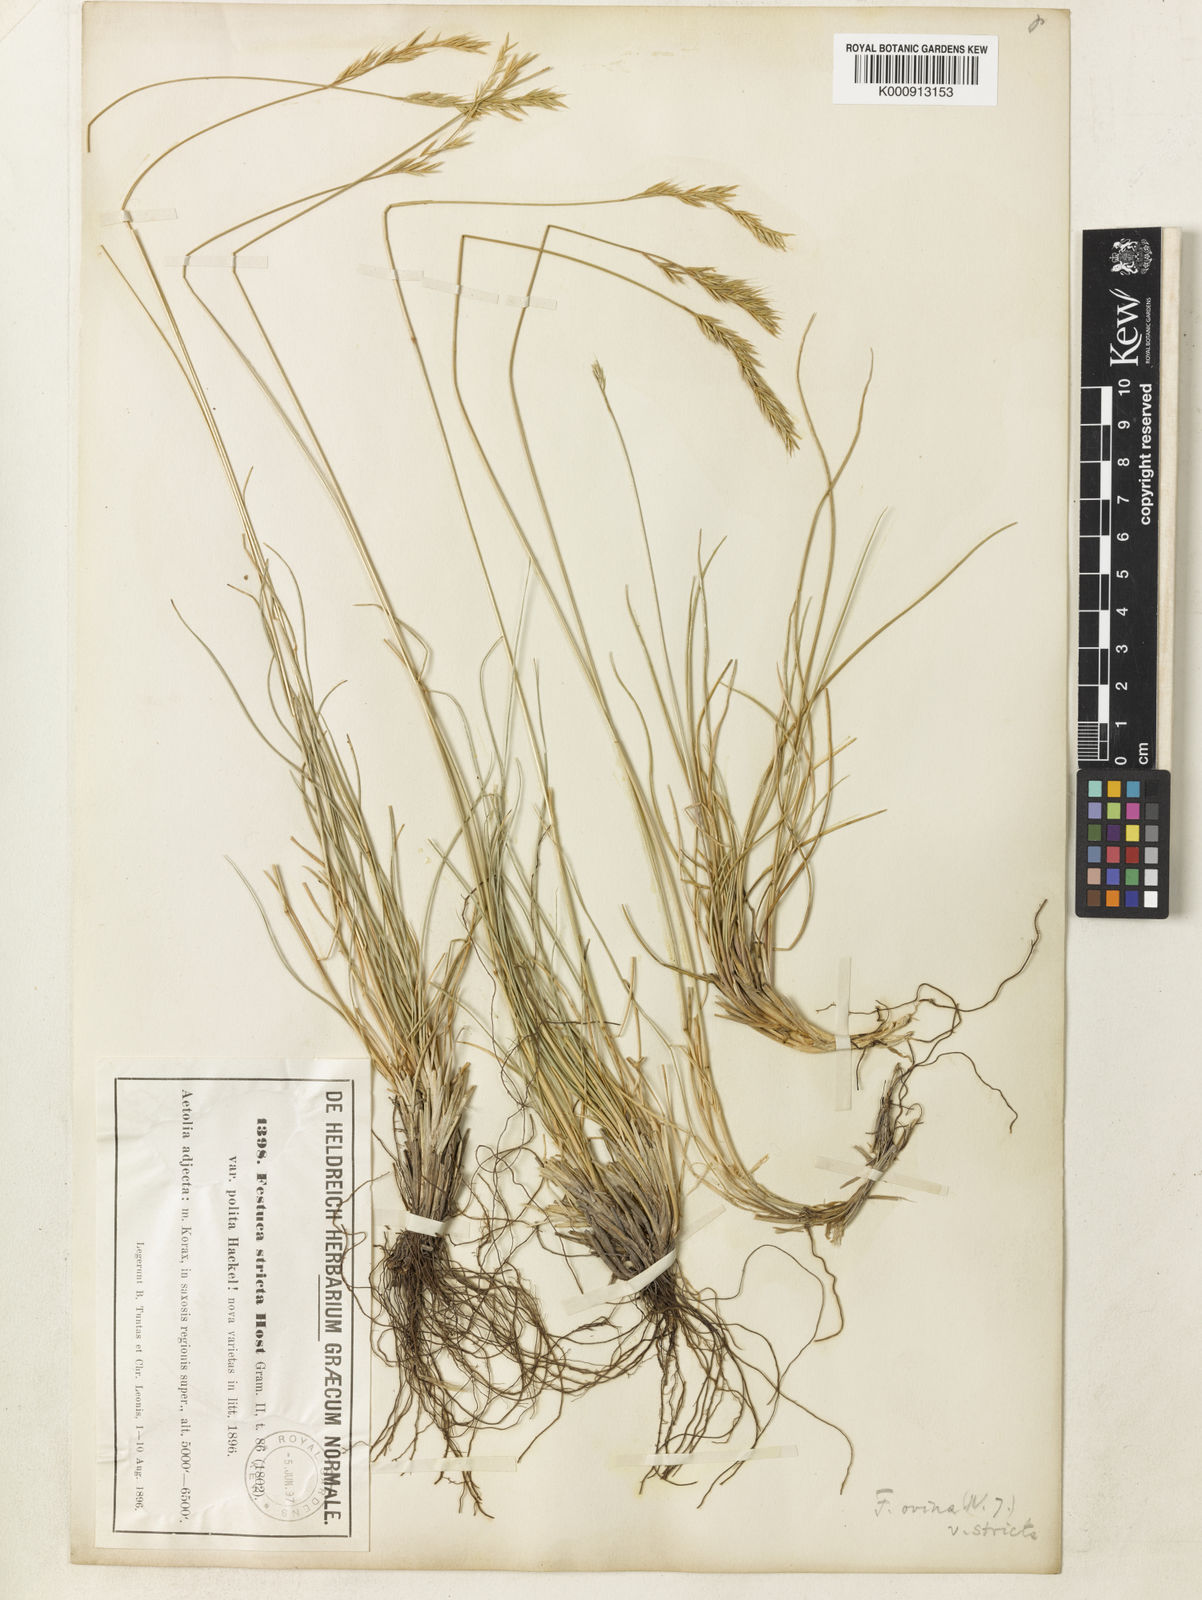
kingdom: Plantae
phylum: Tracheophyta
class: Liliopsida
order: Poales
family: Poaceae
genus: Festuca
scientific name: Festuca stricta
